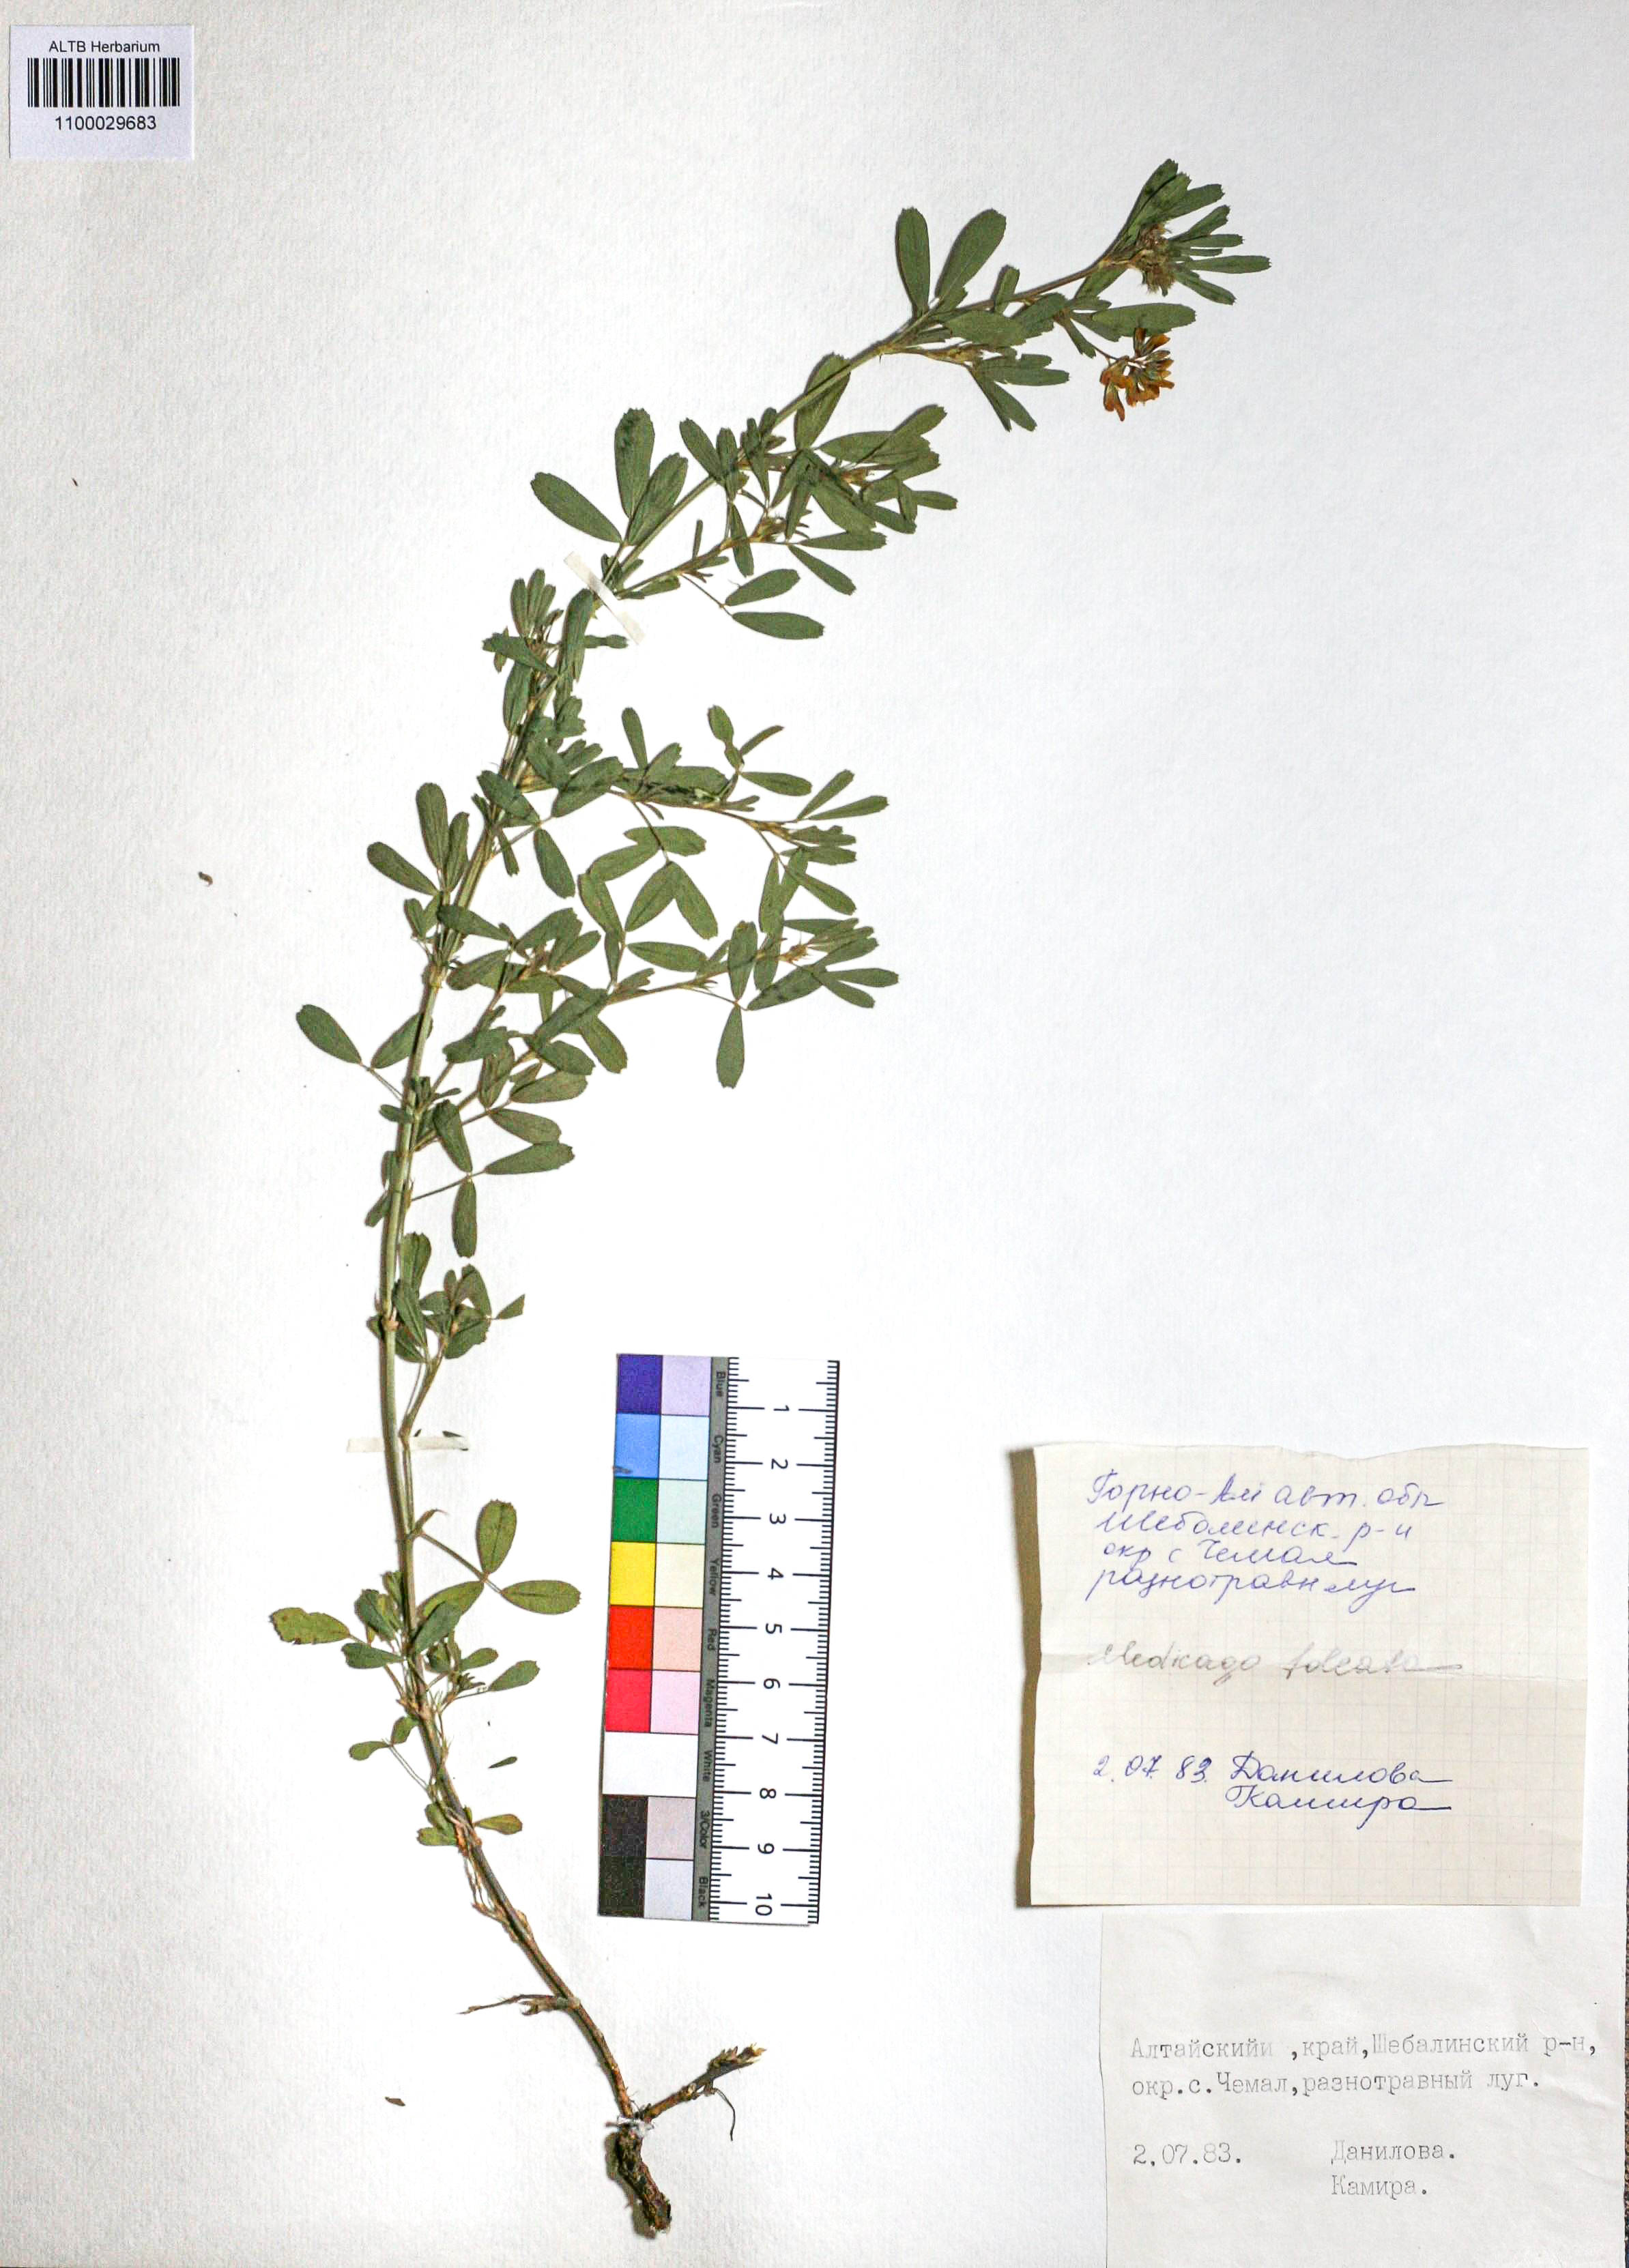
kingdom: Plantae
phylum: Tracheophyta
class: Magnoliopsida
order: Fabales
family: Fabaceae
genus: Medicago
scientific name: Medicago falcata
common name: Sickle medick
